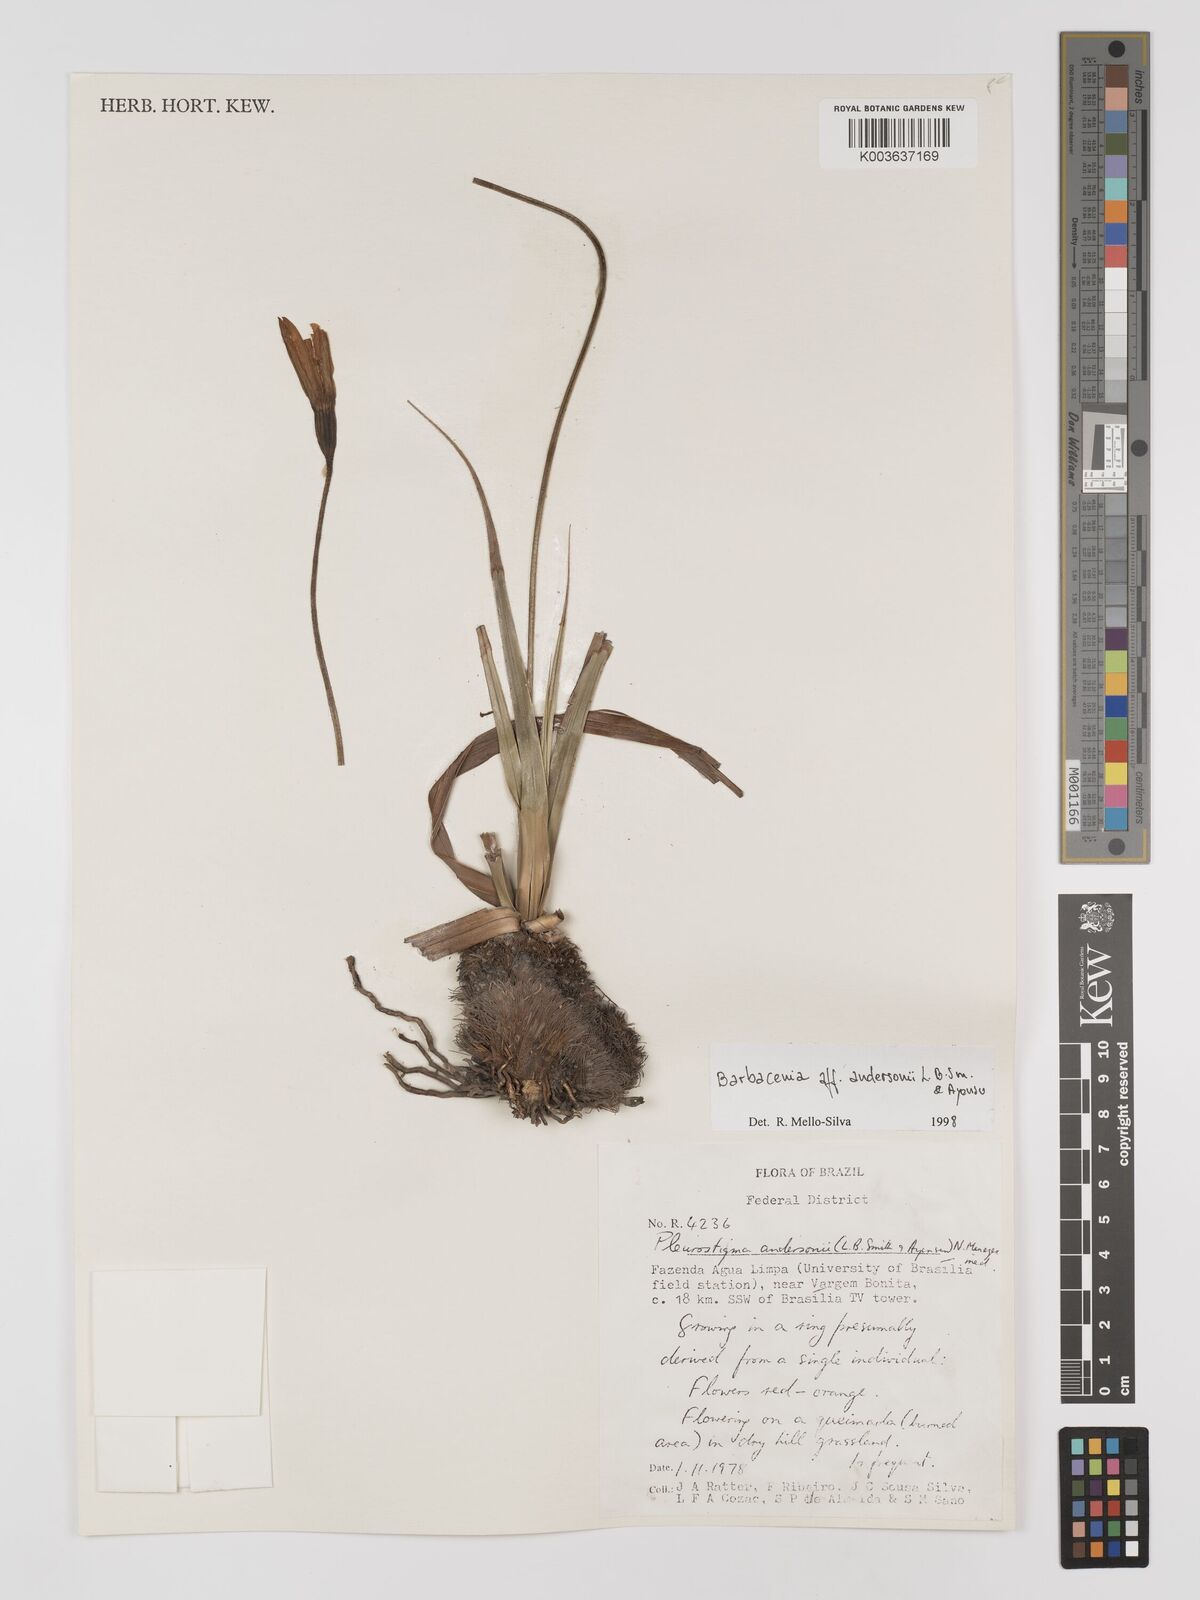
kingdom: Plantae
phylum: Tracheophyta
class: Liliopsida
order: Pandanales
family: Velloziaceae
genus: Barbacenia
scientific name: Barbacenia andersonii
